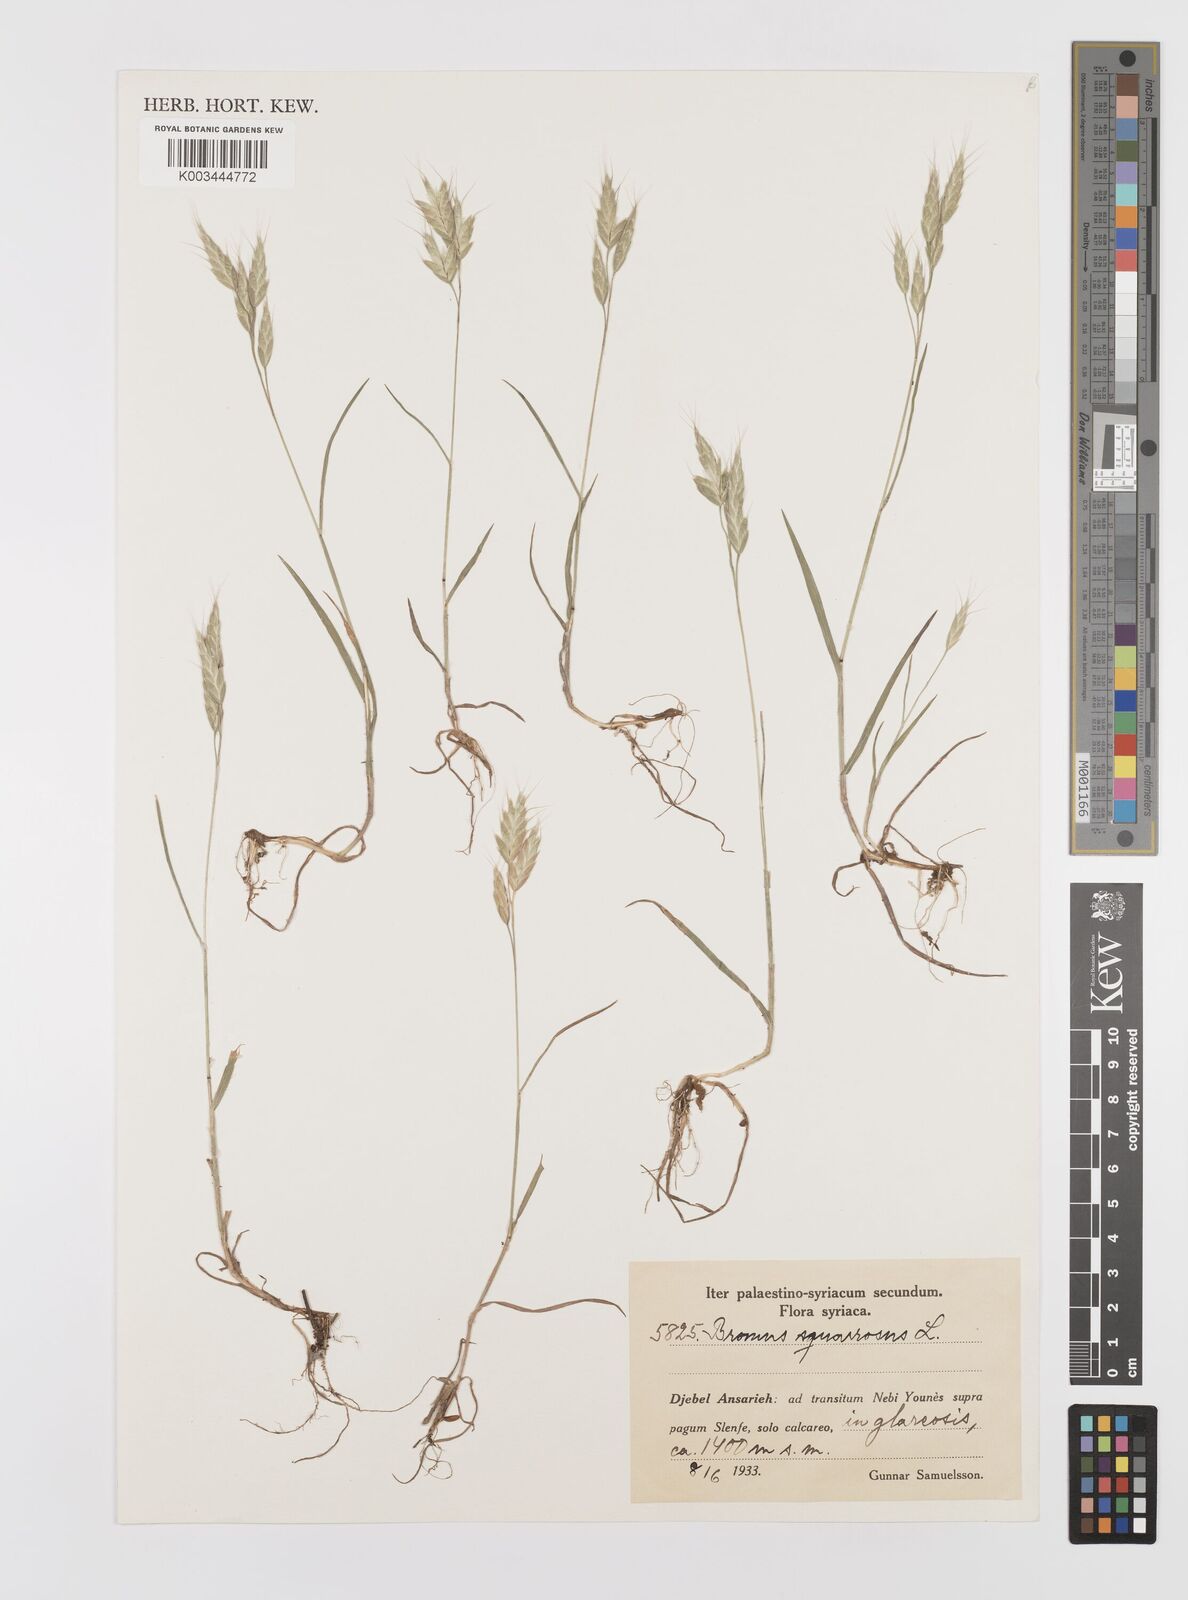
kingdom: Plantae
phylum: Tracheophyta
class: Liliopsida
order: Poales
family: Poaceae
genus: Bromus
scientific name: Bromus squarrosus
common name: Corn brome
